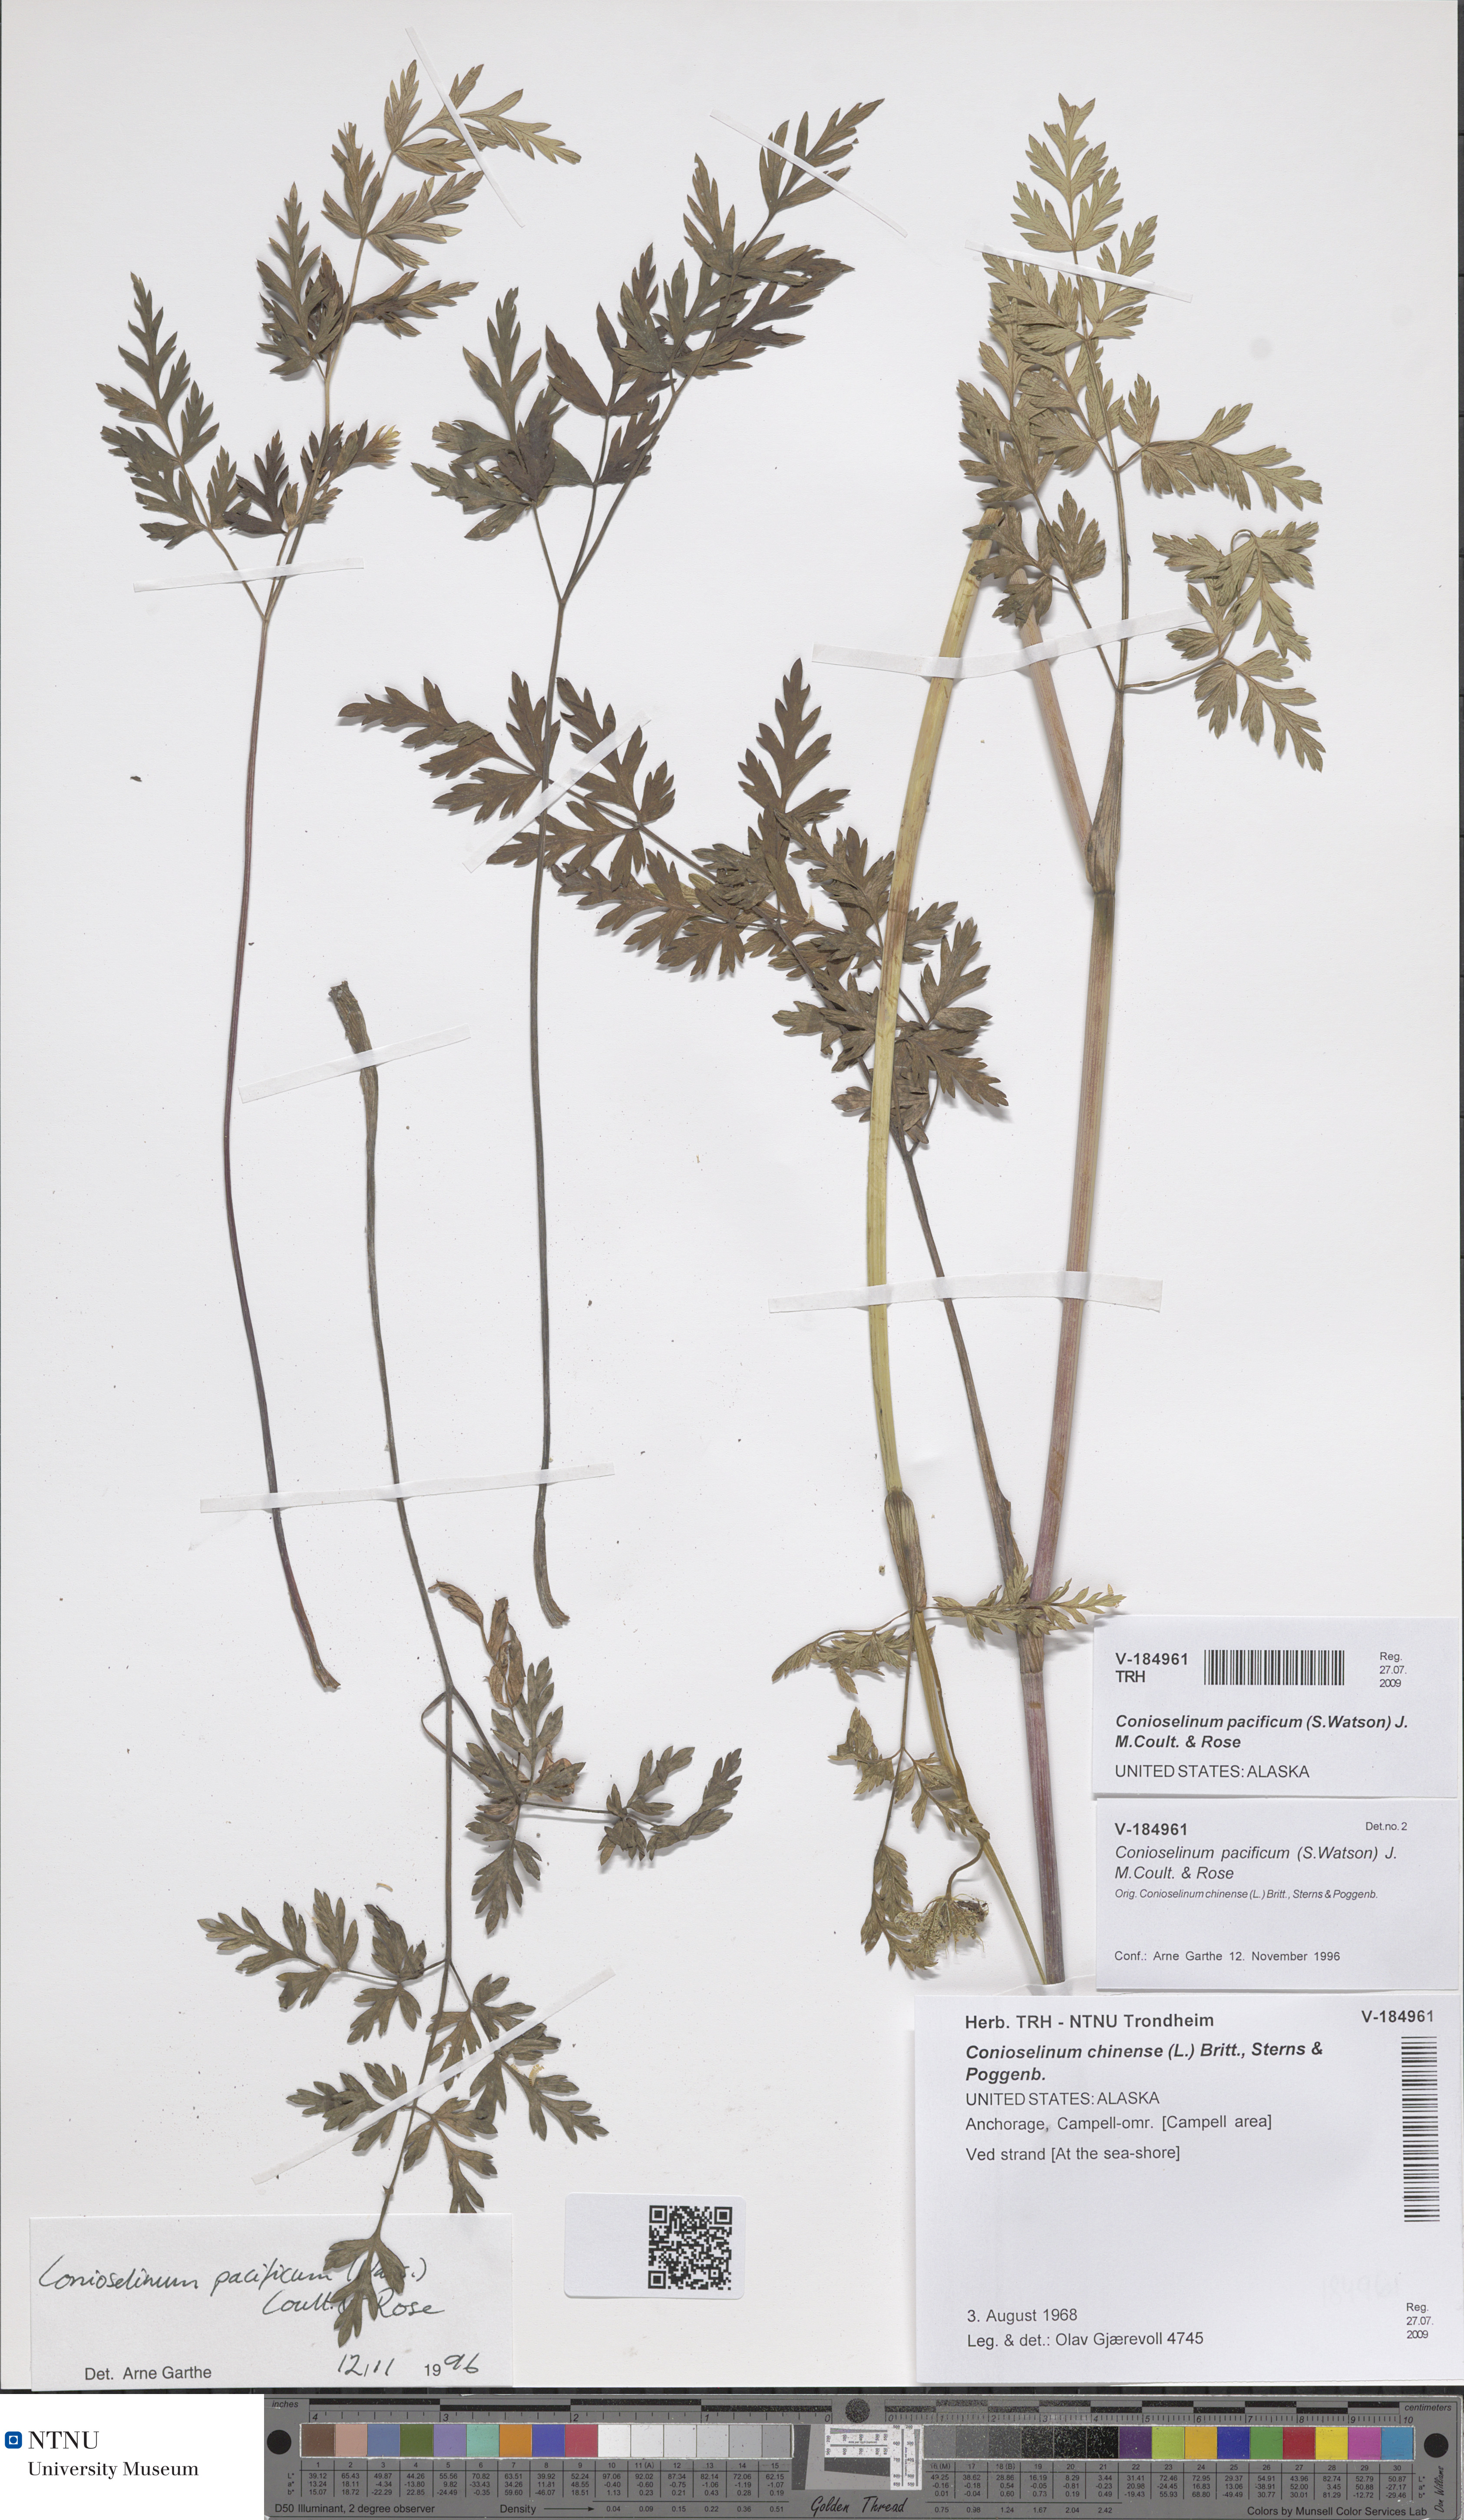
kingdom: Plantae
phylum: Tracheophyta
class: Magnoliopsida
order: Apiales
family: Apiaceae
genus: Kreidion
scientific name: Kreidion gmelinii
